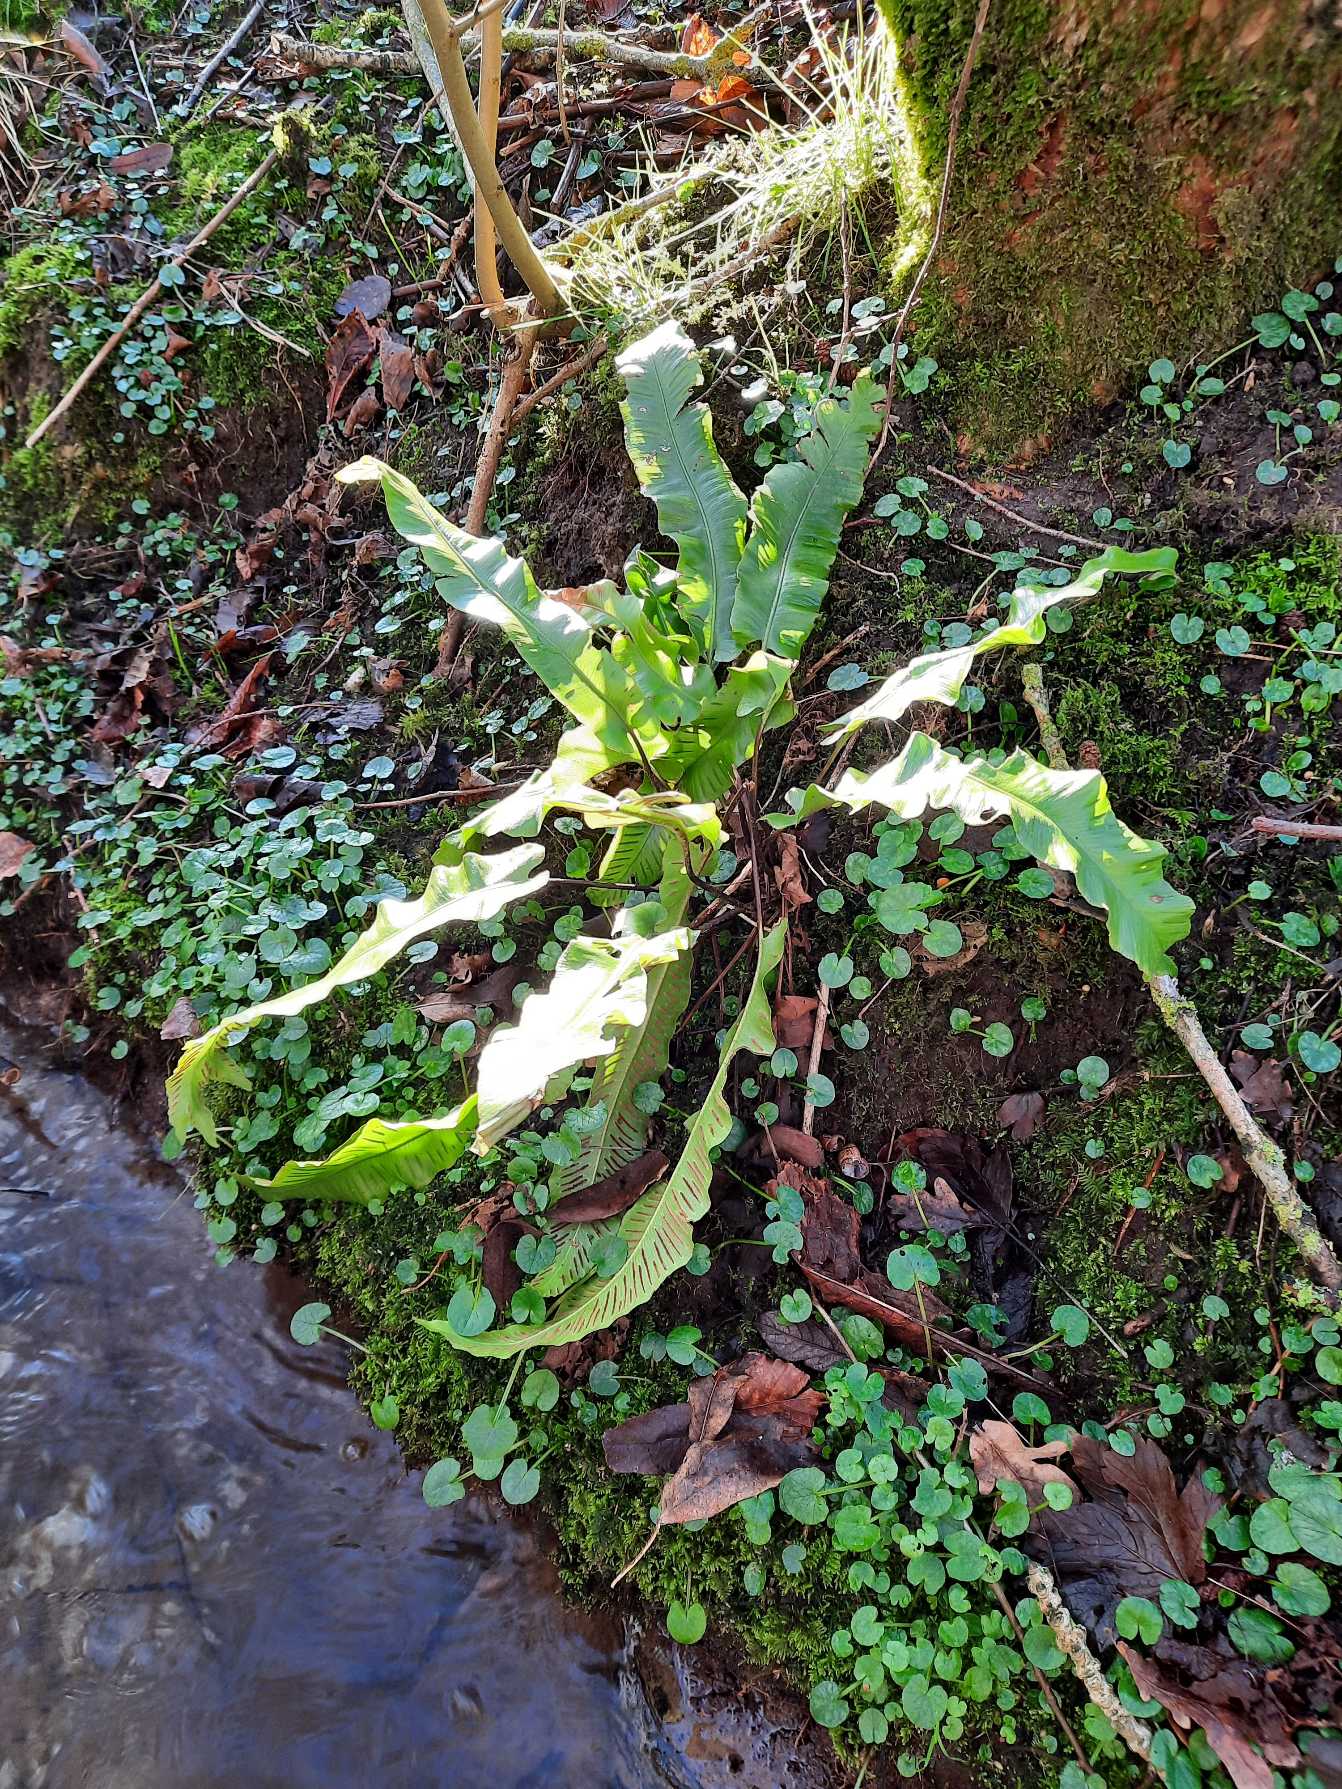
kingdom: Plantae
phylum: Tracheophyta
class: Polypodiopsida
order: Polypodiales
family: Aspleniaceae
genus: Asplenium
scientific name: Asplenium scolopendrium
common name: Hjortetunge
